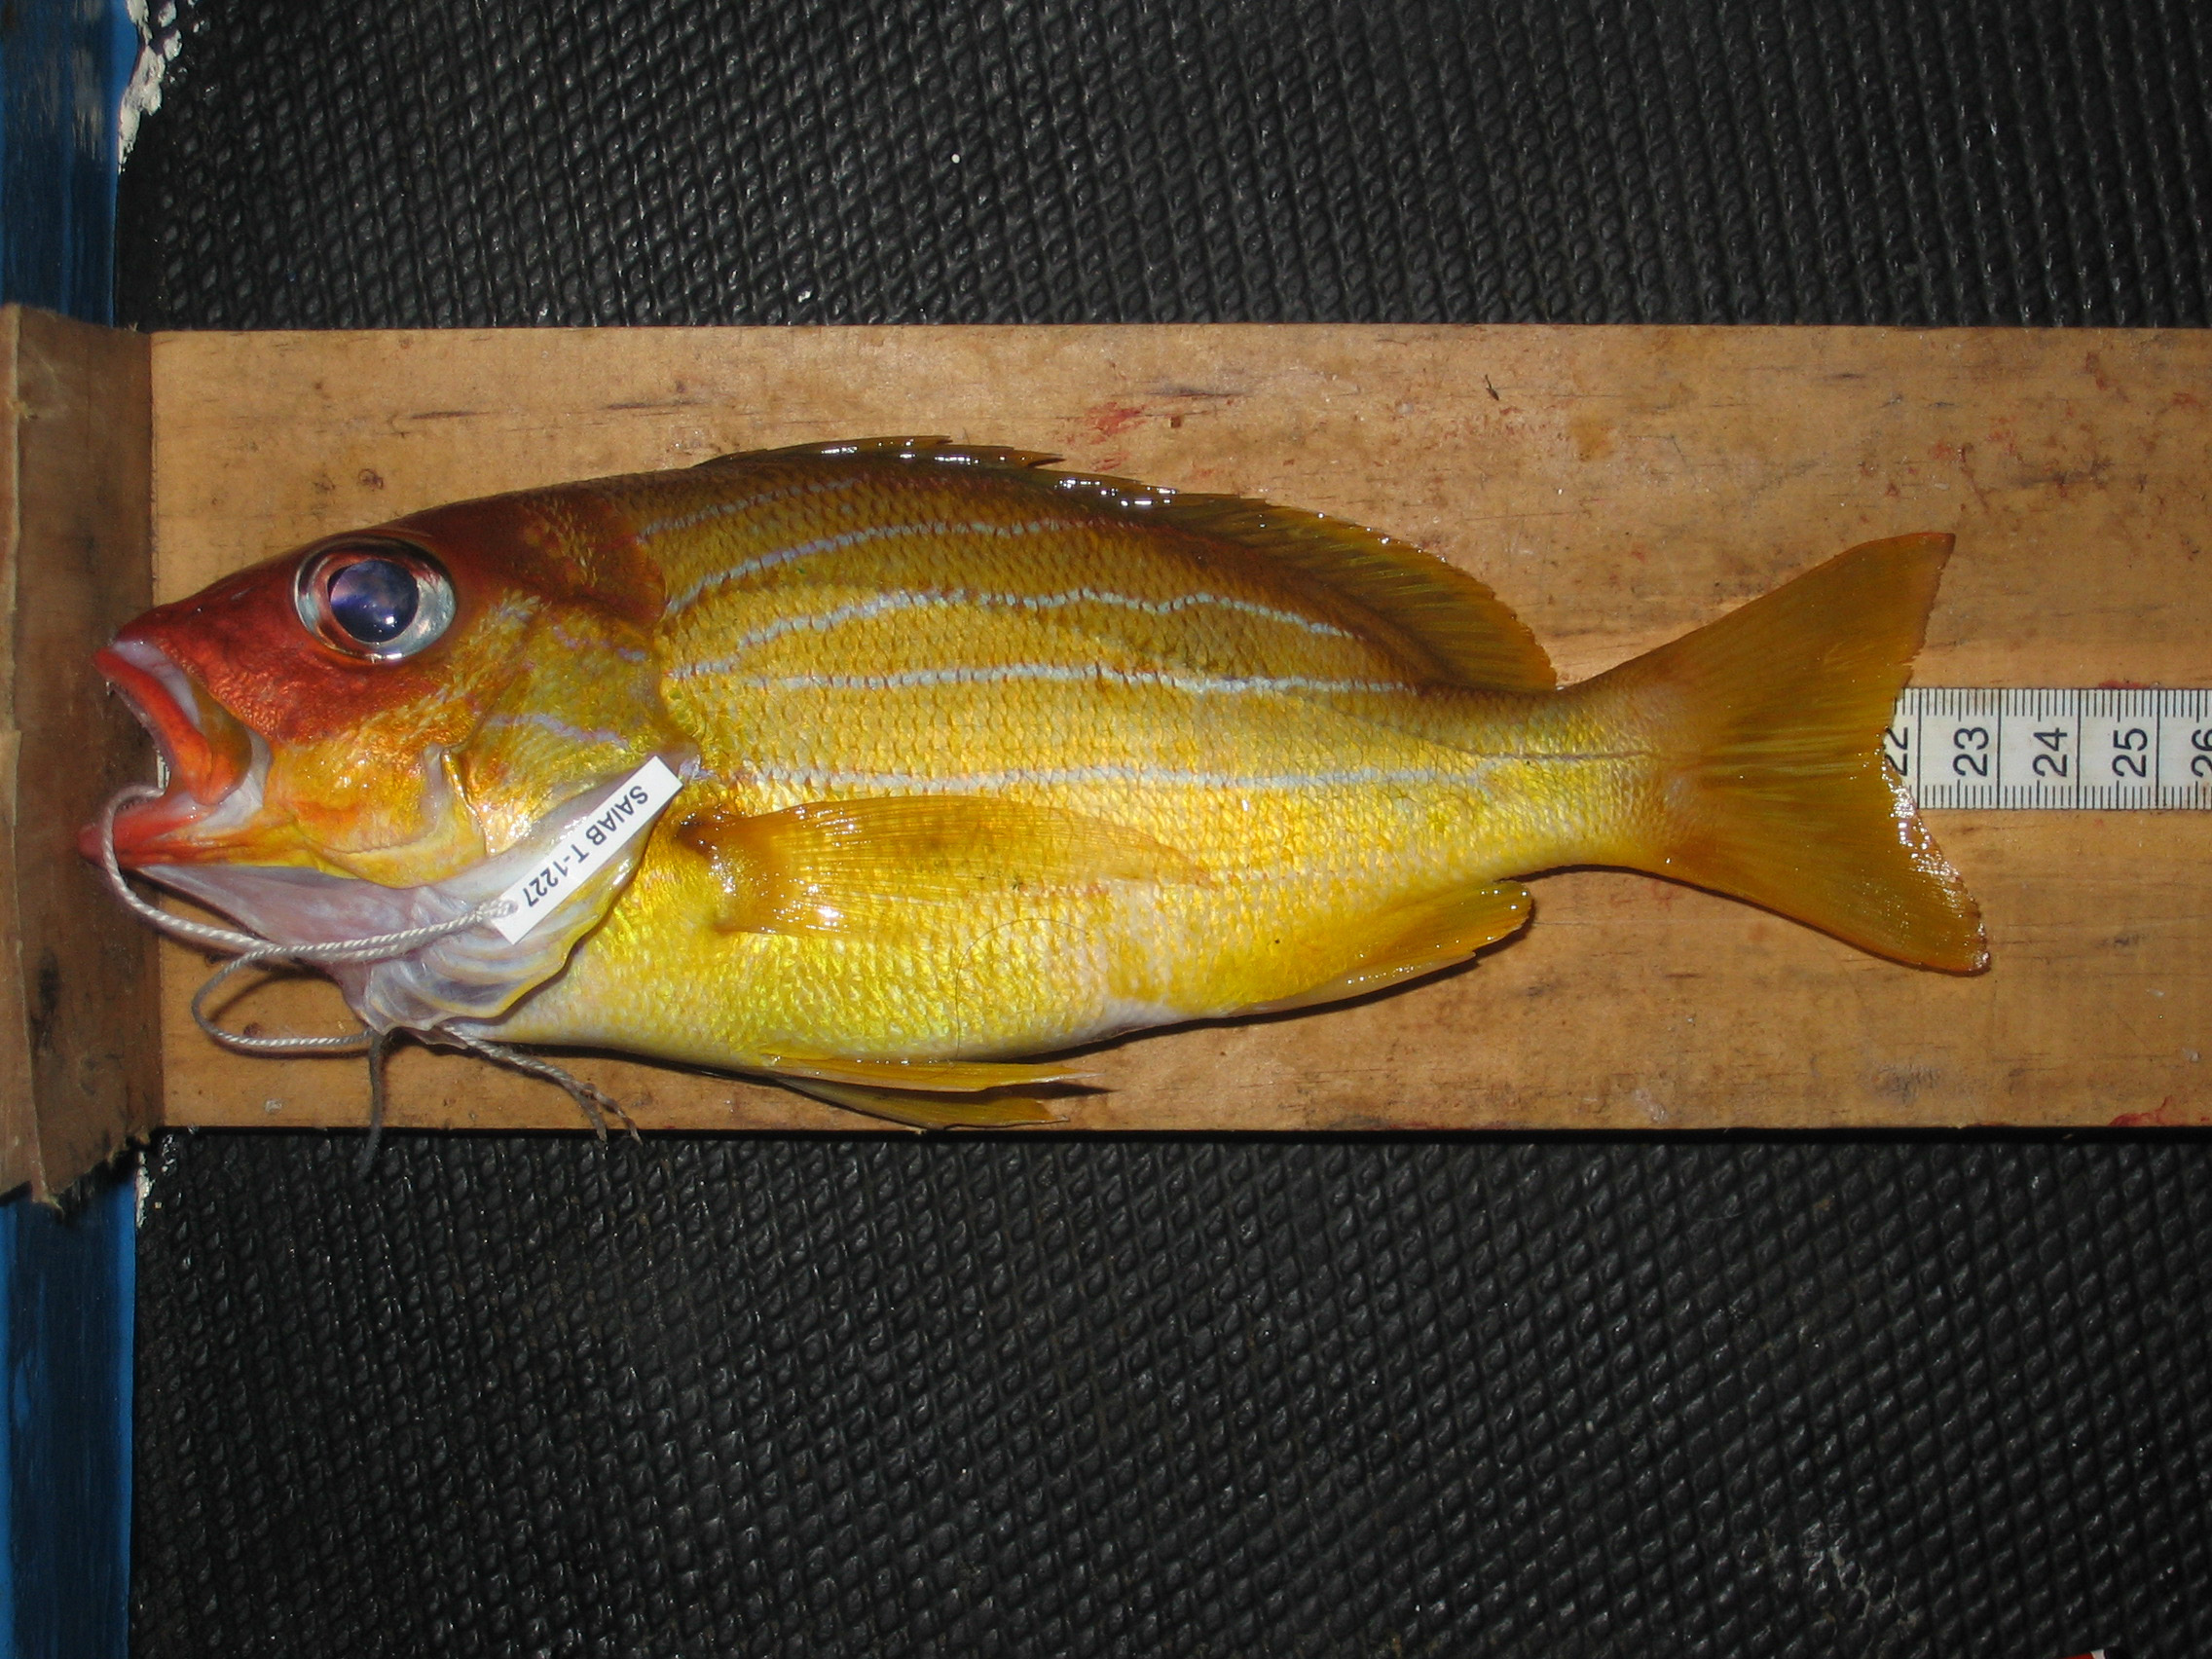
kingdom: Animalia
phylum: Chordata
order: Perciformes
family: Lutjanidae
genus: Lutjanus
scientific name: Lutjanus notatus
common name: Bluestriped snapper
